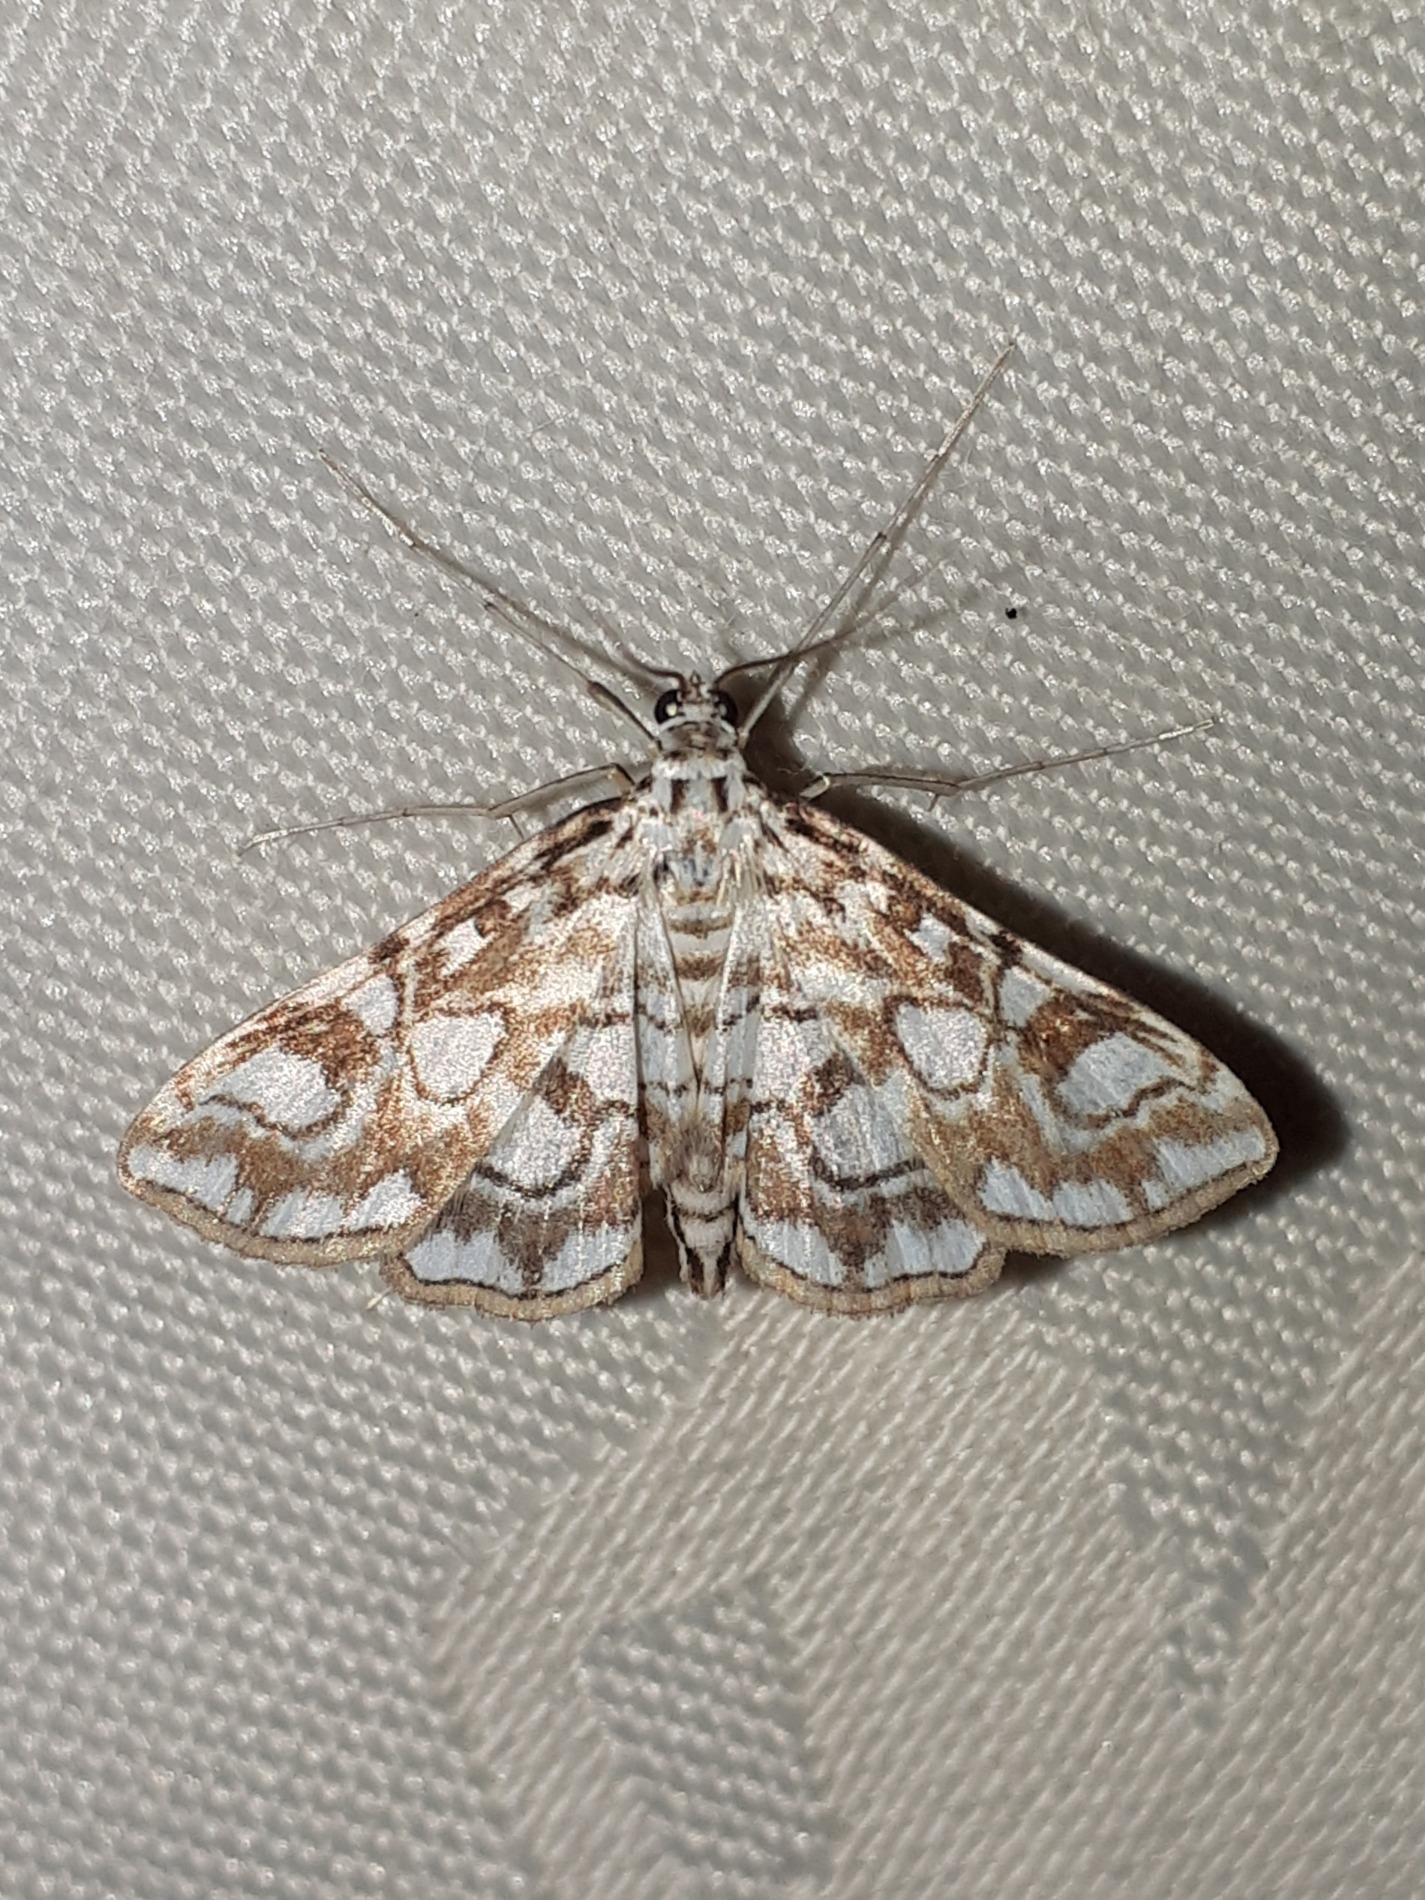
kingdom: Animalia
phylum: Arthropoda
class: Insecta
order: Lepidoptera
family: Crambidae
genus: Elophila
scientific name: Elophila nymphaeata
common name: Åkandehalvmøl
